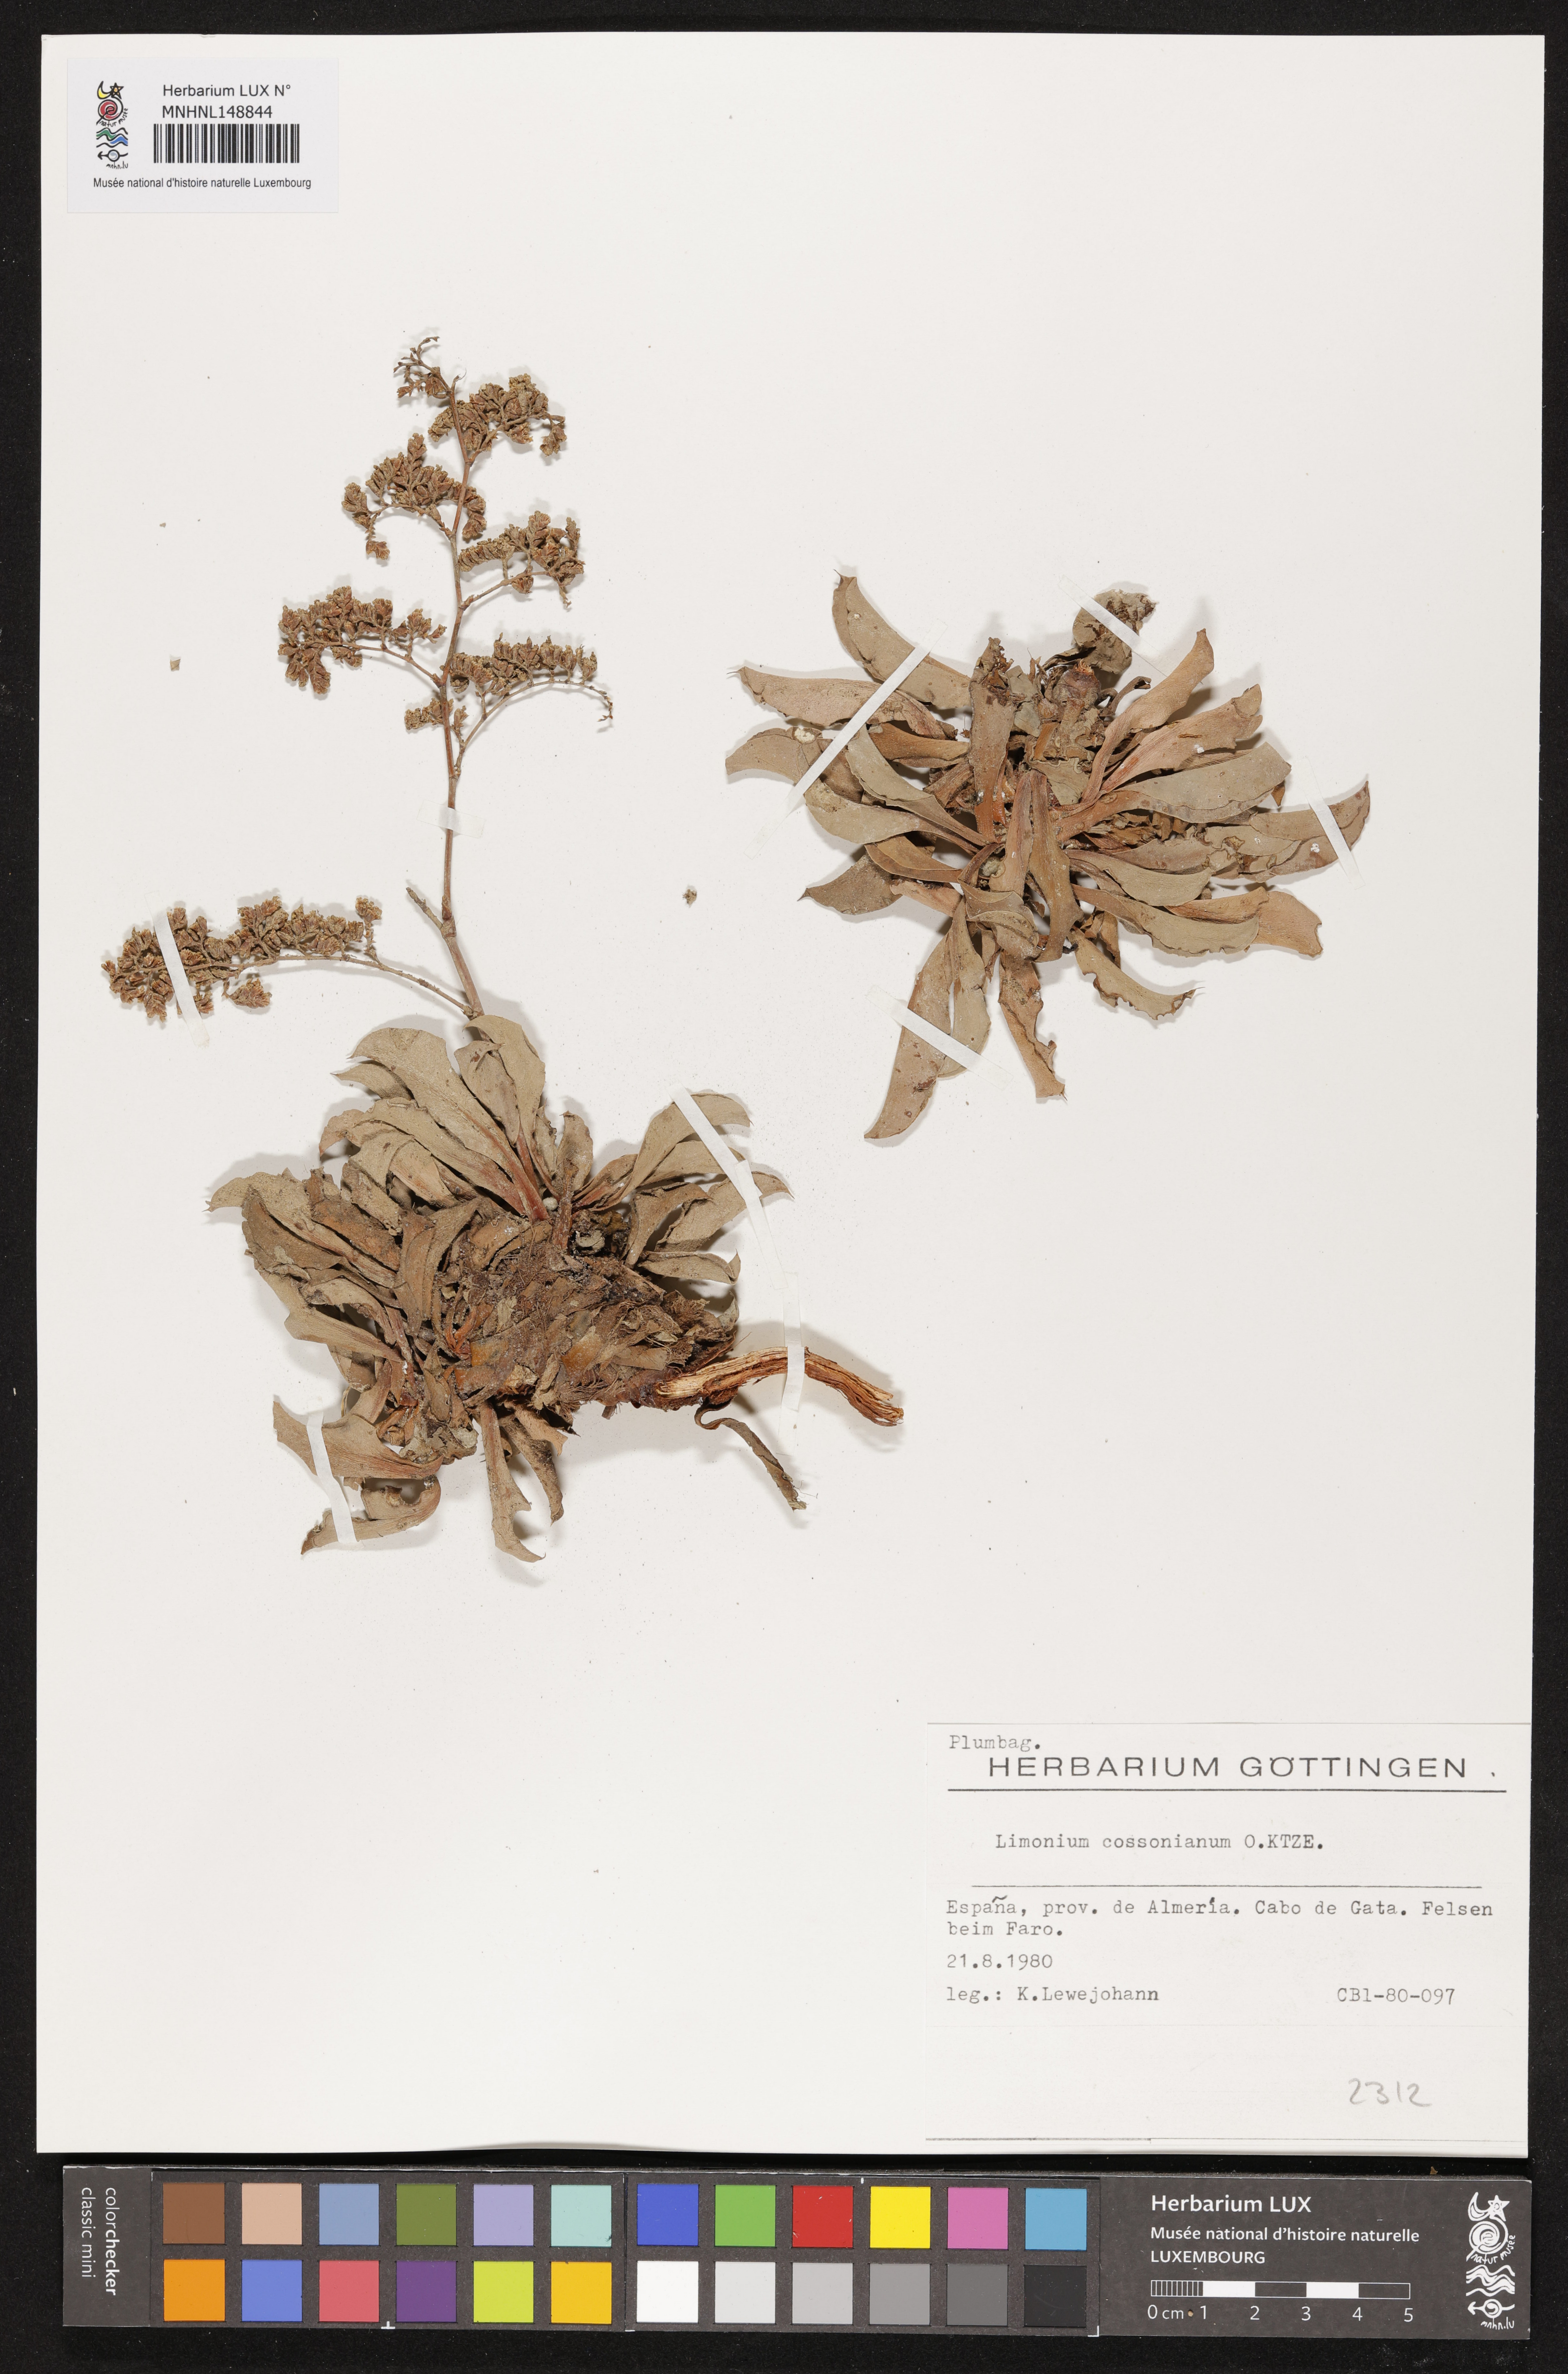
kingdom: Plantae
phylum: Tracheophyta
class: Magnoliopsida
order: Caryophyllales
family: Plumbaginaceae
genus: Limonium
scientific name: Limonium cossonianum
